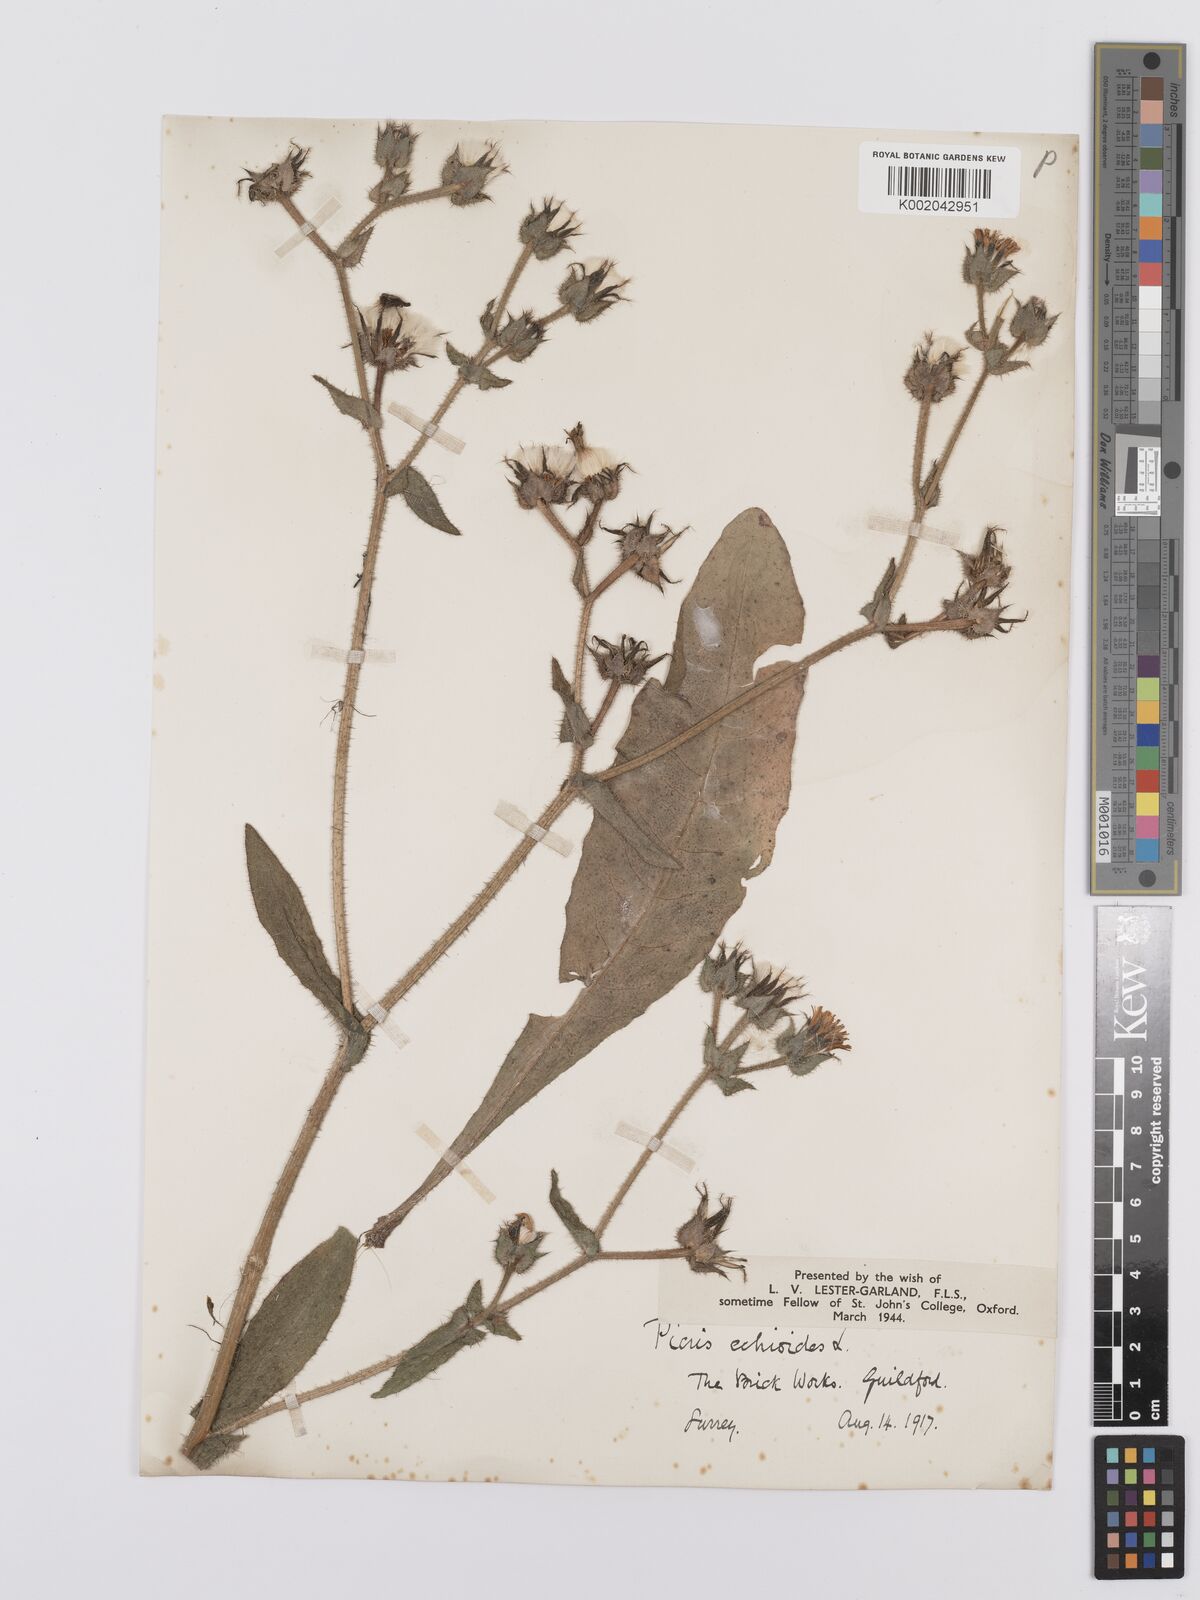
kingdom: Plantae
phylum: Tracheophyta
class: Magnoliopsida
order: Asterales
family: Asteraceae
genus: Helminthotheca
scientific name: Helminthotheca echioides
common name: Ox-tongue
